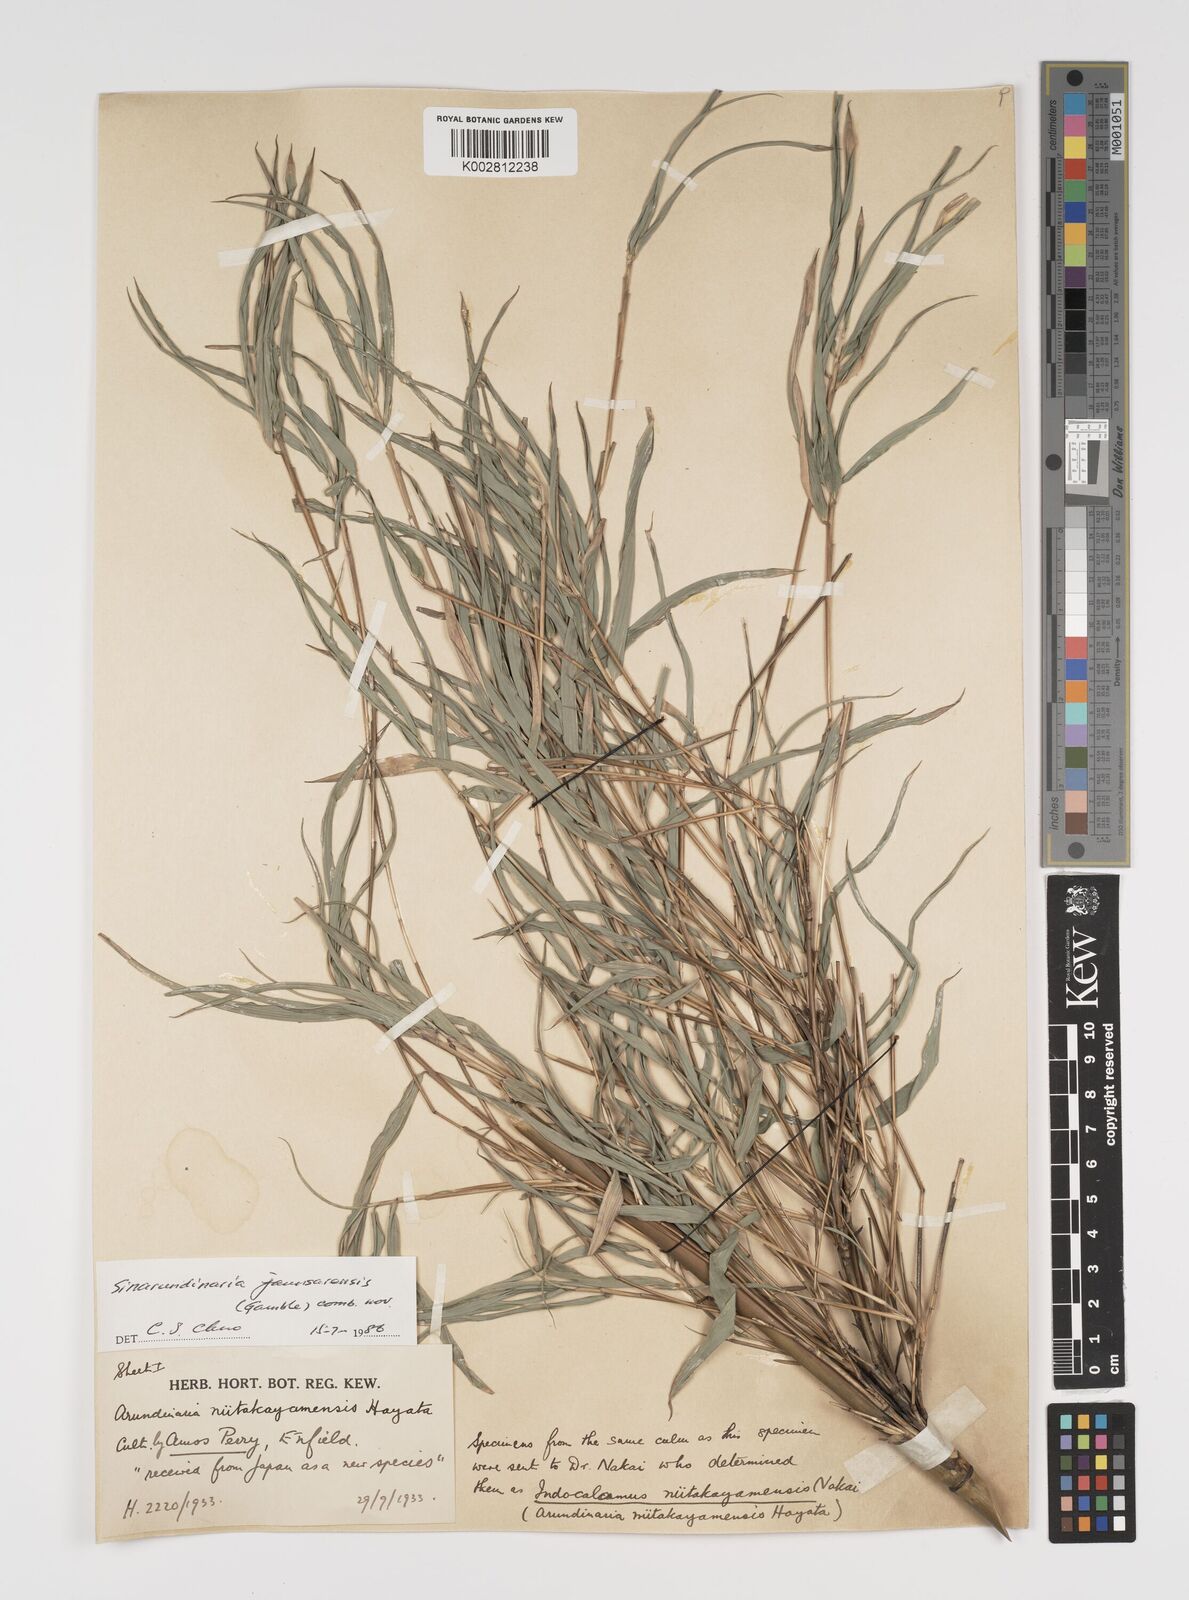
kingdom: Plantae
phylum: Tracheophyta
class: Liliopsida
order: Poales
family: Poaceae
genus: Yushania
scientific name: Yushania anceps
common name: Indian fountain-bamboo
